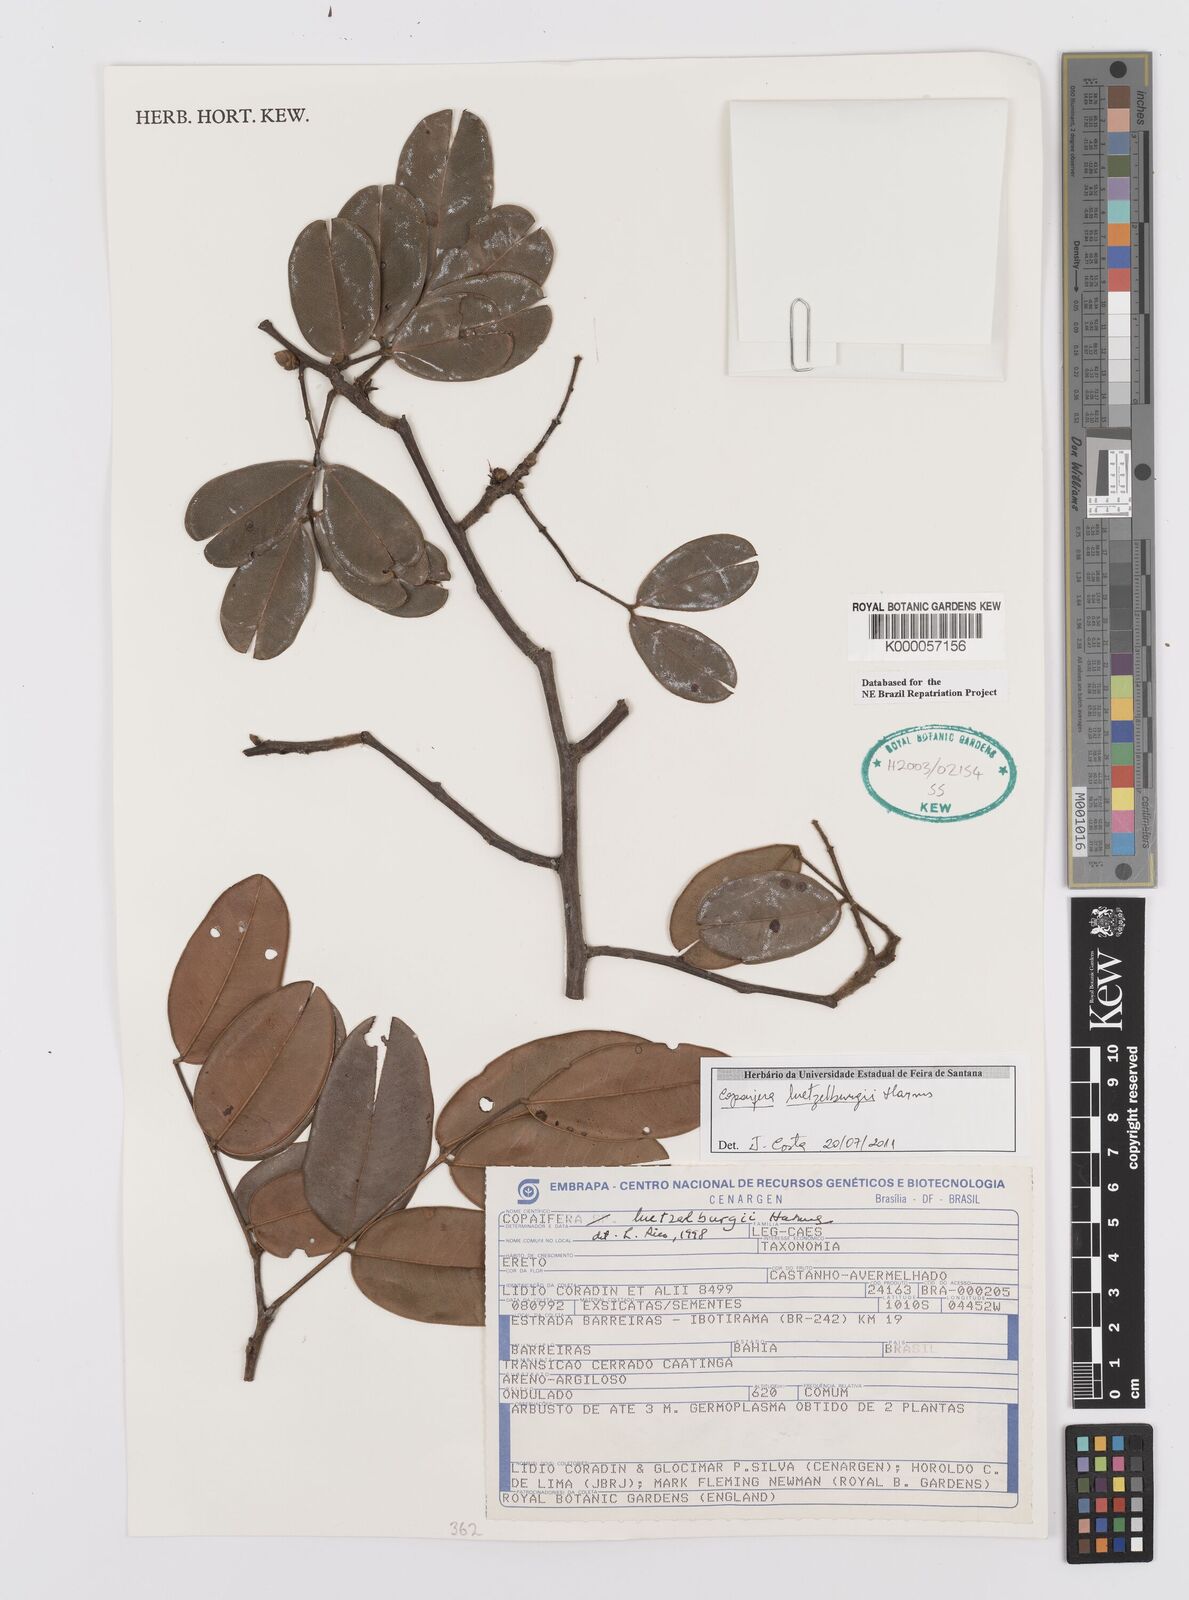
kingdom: Plantae
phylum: Tracheophyta
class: Magnoliopsida
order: Fabales
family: Fabaceae
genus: Copaifera
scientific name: Copaifera luetzelburgii
